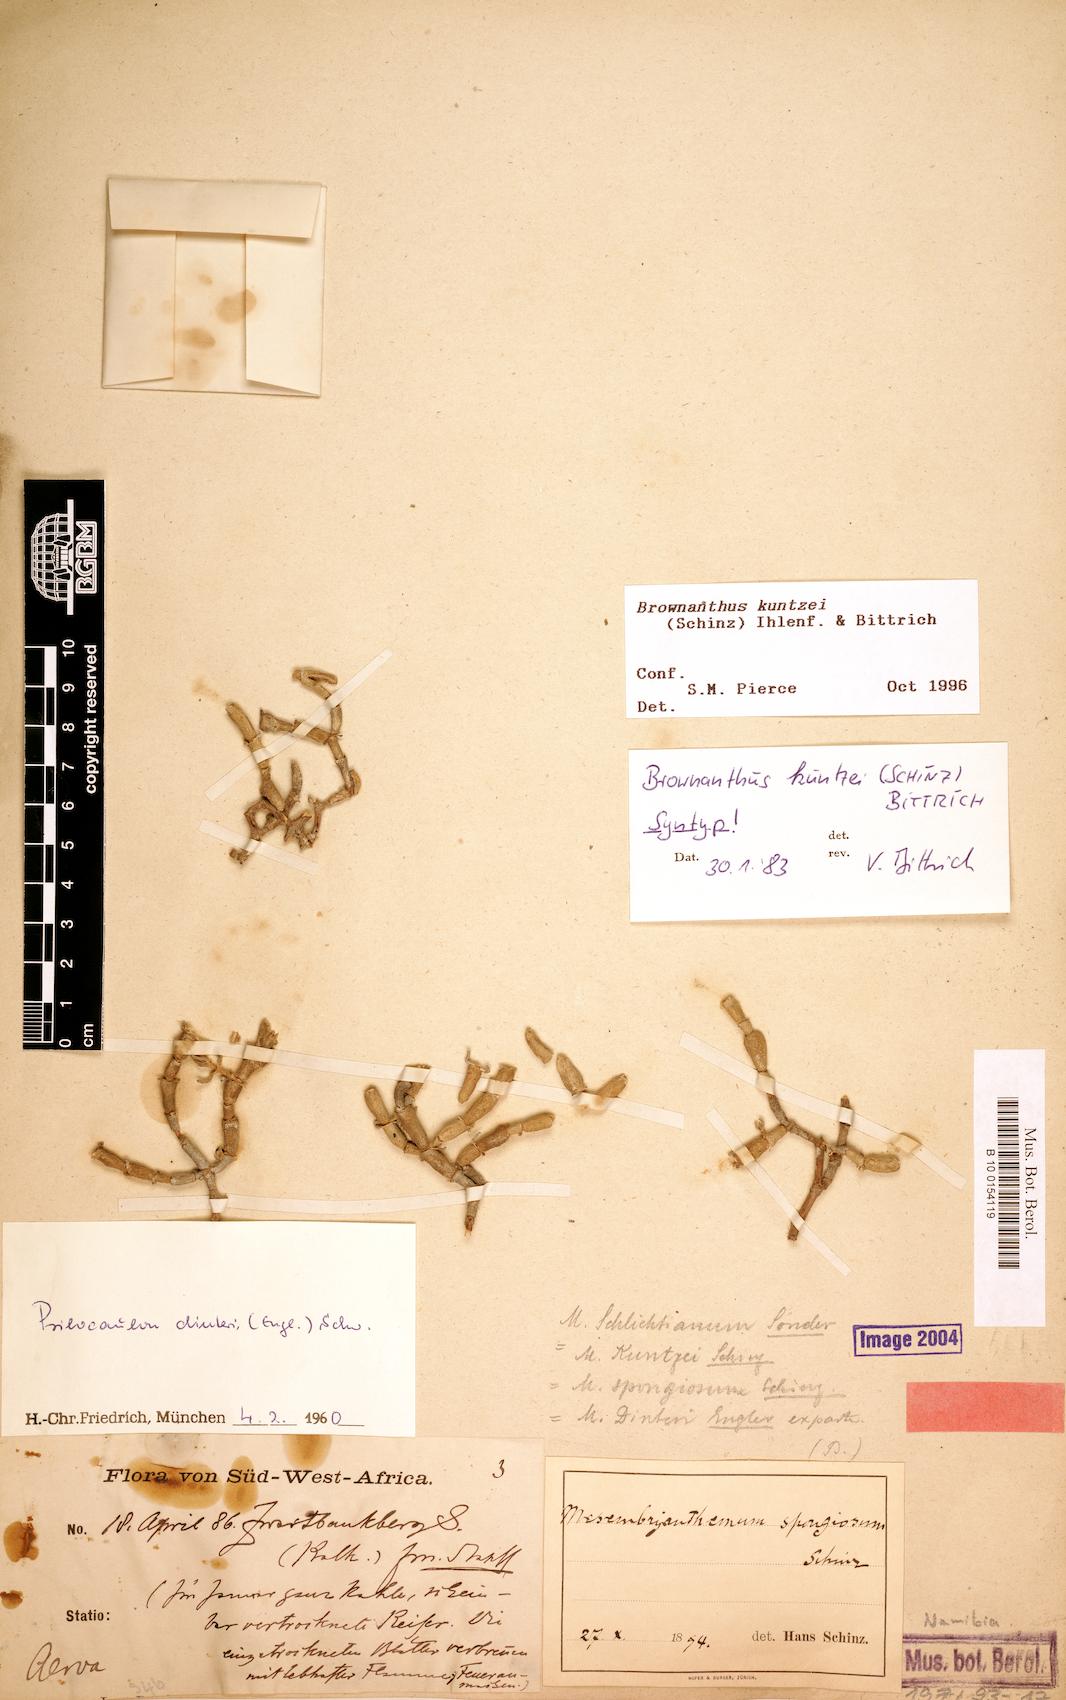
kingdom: Plantae
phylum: Tracheophyta
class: Magnoliopsida
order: Caryophyllales
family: Aizoaceae
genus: Mesembryanthemum
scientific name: Mesembryanthemum kuntzei
